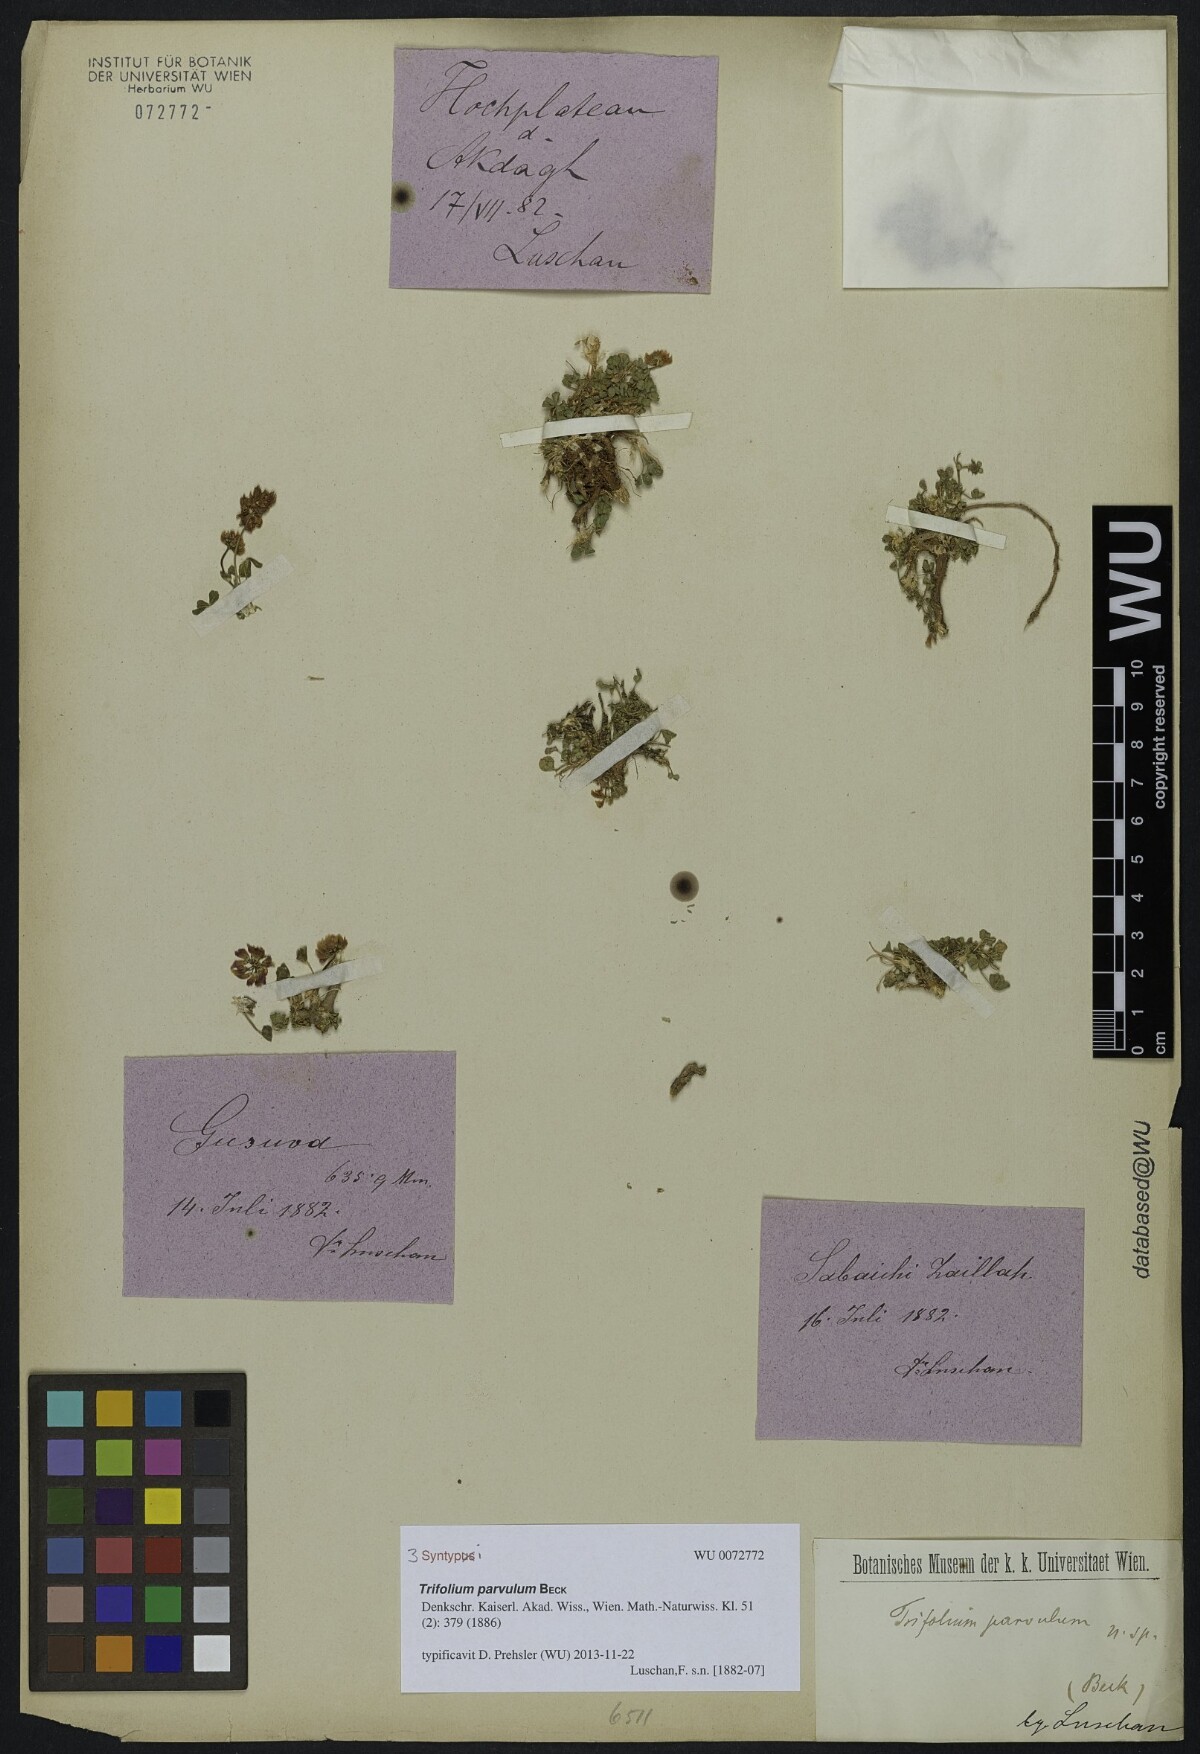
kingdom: Plantae
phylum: Tracheophyta
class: Magnoliopsida
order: Fabales
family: Fabaceae
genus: Trifolium
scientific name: Trifolium parvulum
